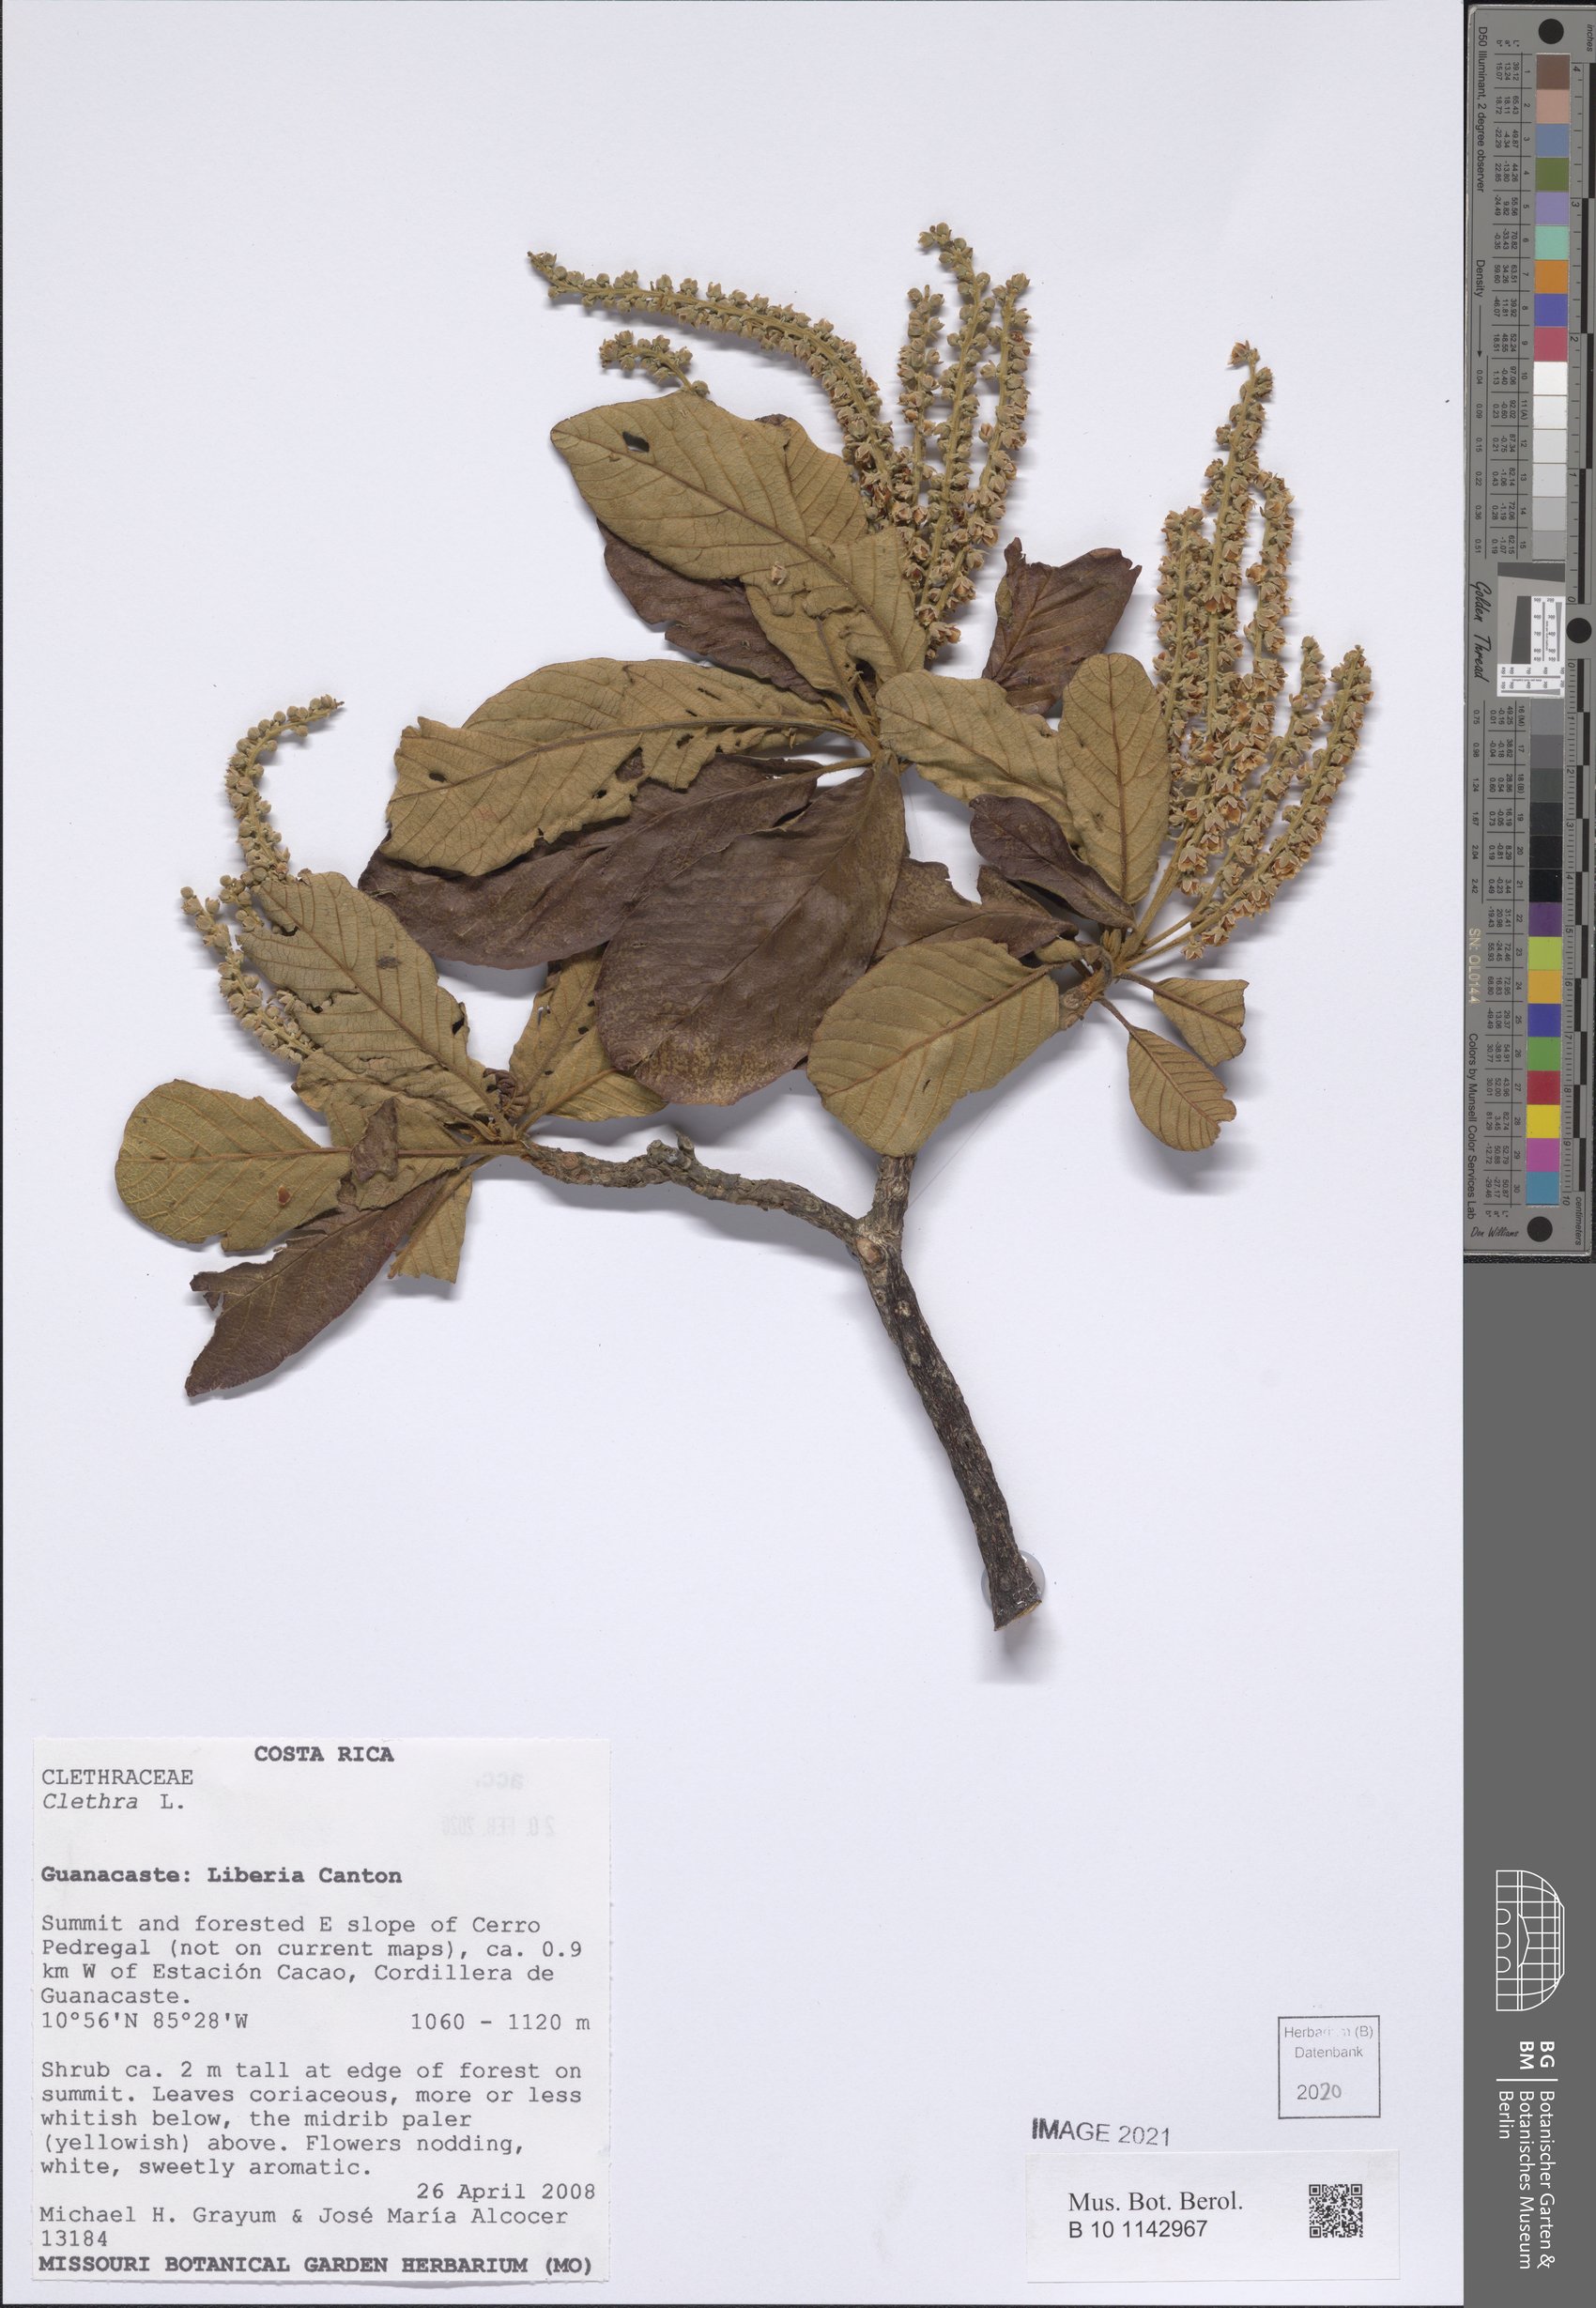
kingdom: Plantae
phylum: Tracheophyta
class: Magnoliopsida
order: Ericales
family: Clethraceae
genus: Clethra
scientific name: Clethra
